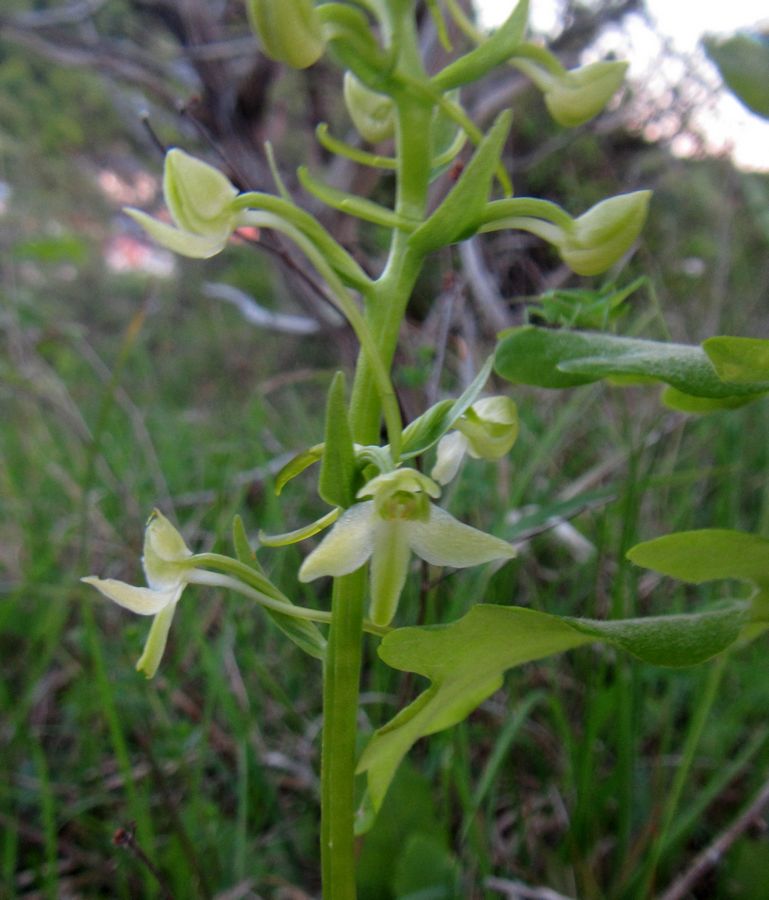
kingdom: Plantae
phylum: Tracheophyta
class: Liliopsida
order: Asparagales
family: Orchidaceae
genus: Platanthera
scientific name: Platanthera chlorantha
